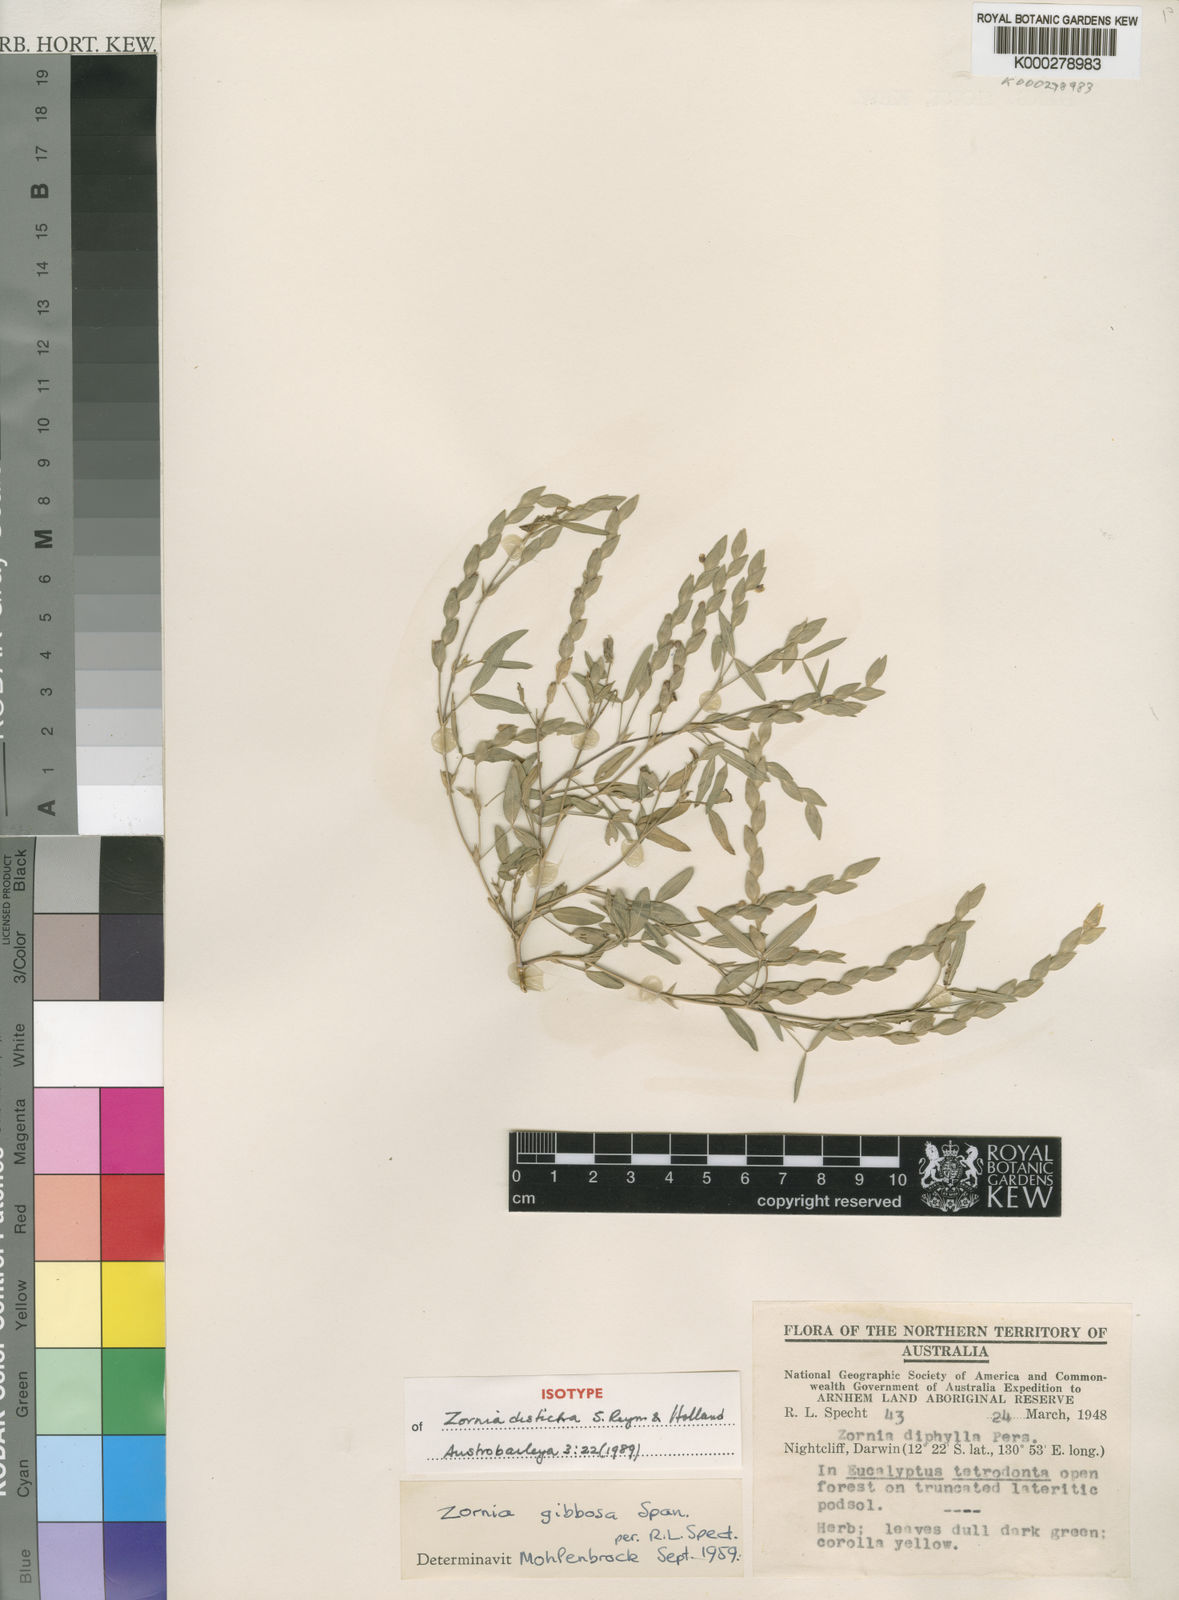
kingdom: Plantae
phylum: Tracheophyta
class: Magnoliopsida
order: Fabales
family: Fabaceae
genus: Zornia
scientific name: Zornia disticha
